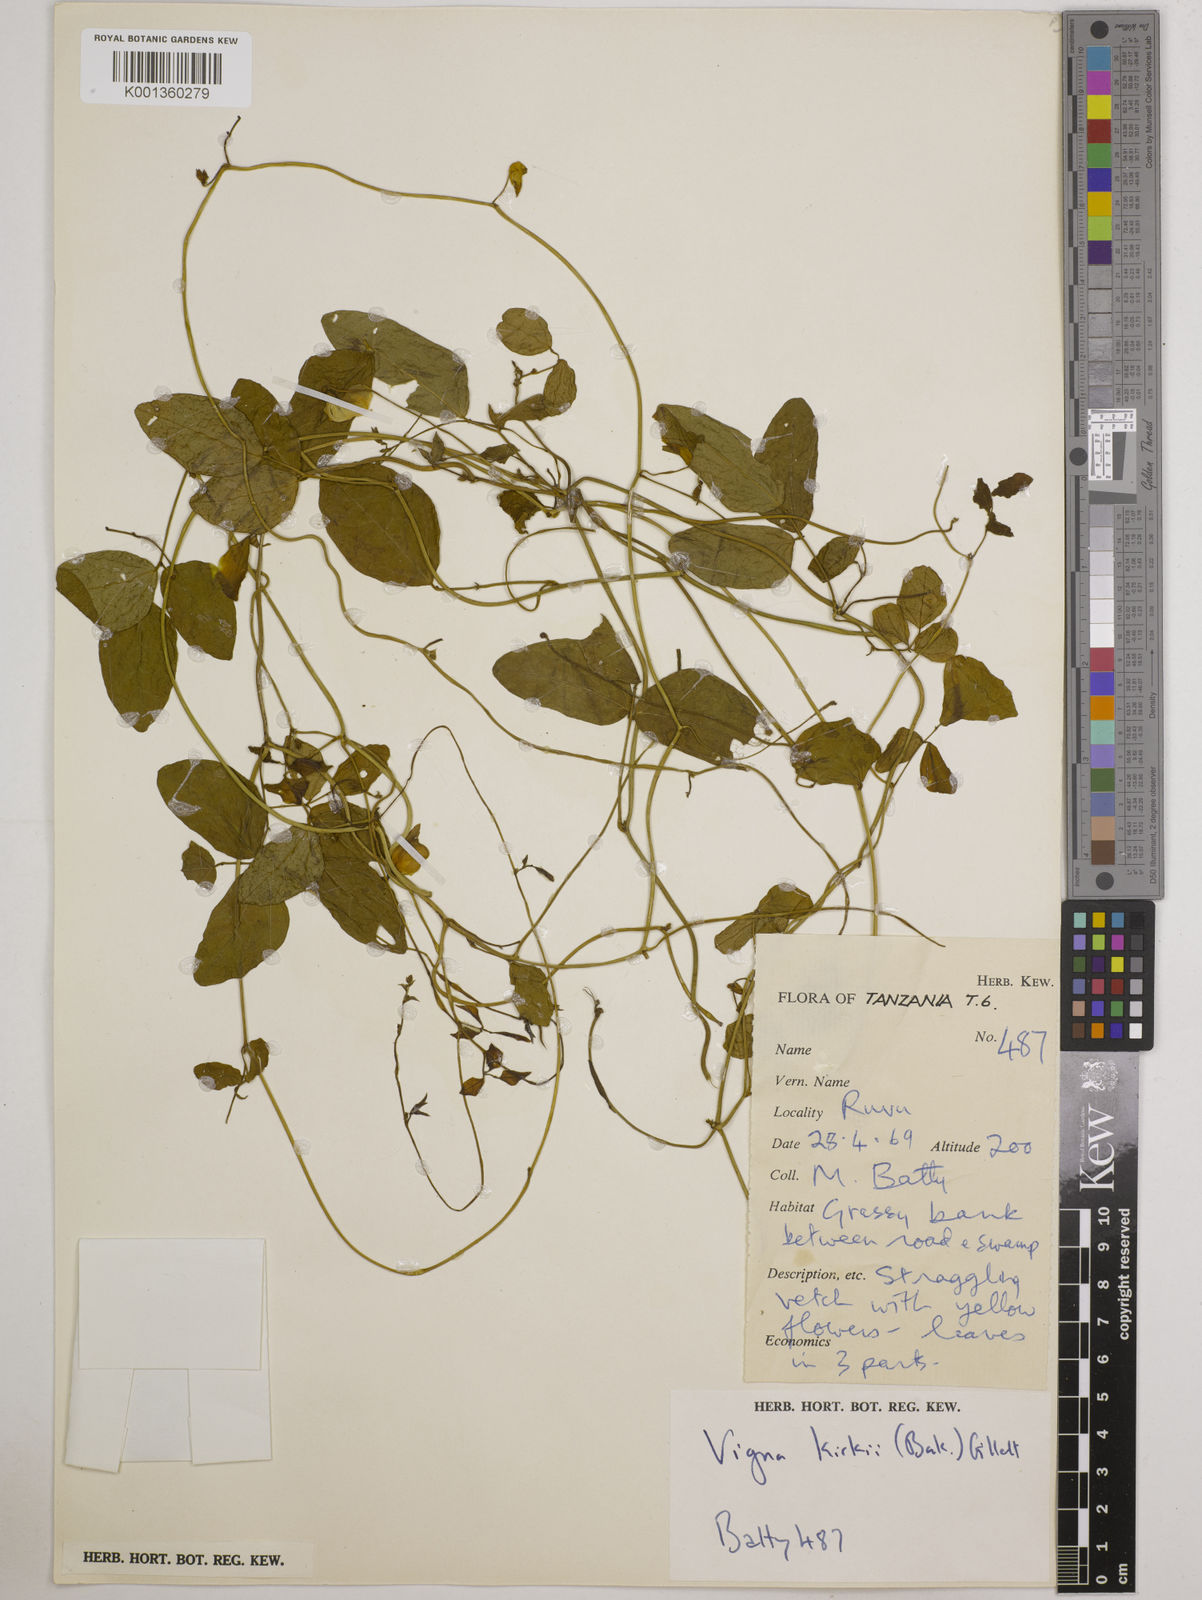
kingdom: Plantae
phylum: Tracheophyta
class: Magnoliopsida
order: Fabales
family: Fabaceae
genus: Vigna
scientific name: Vigna kirkii
